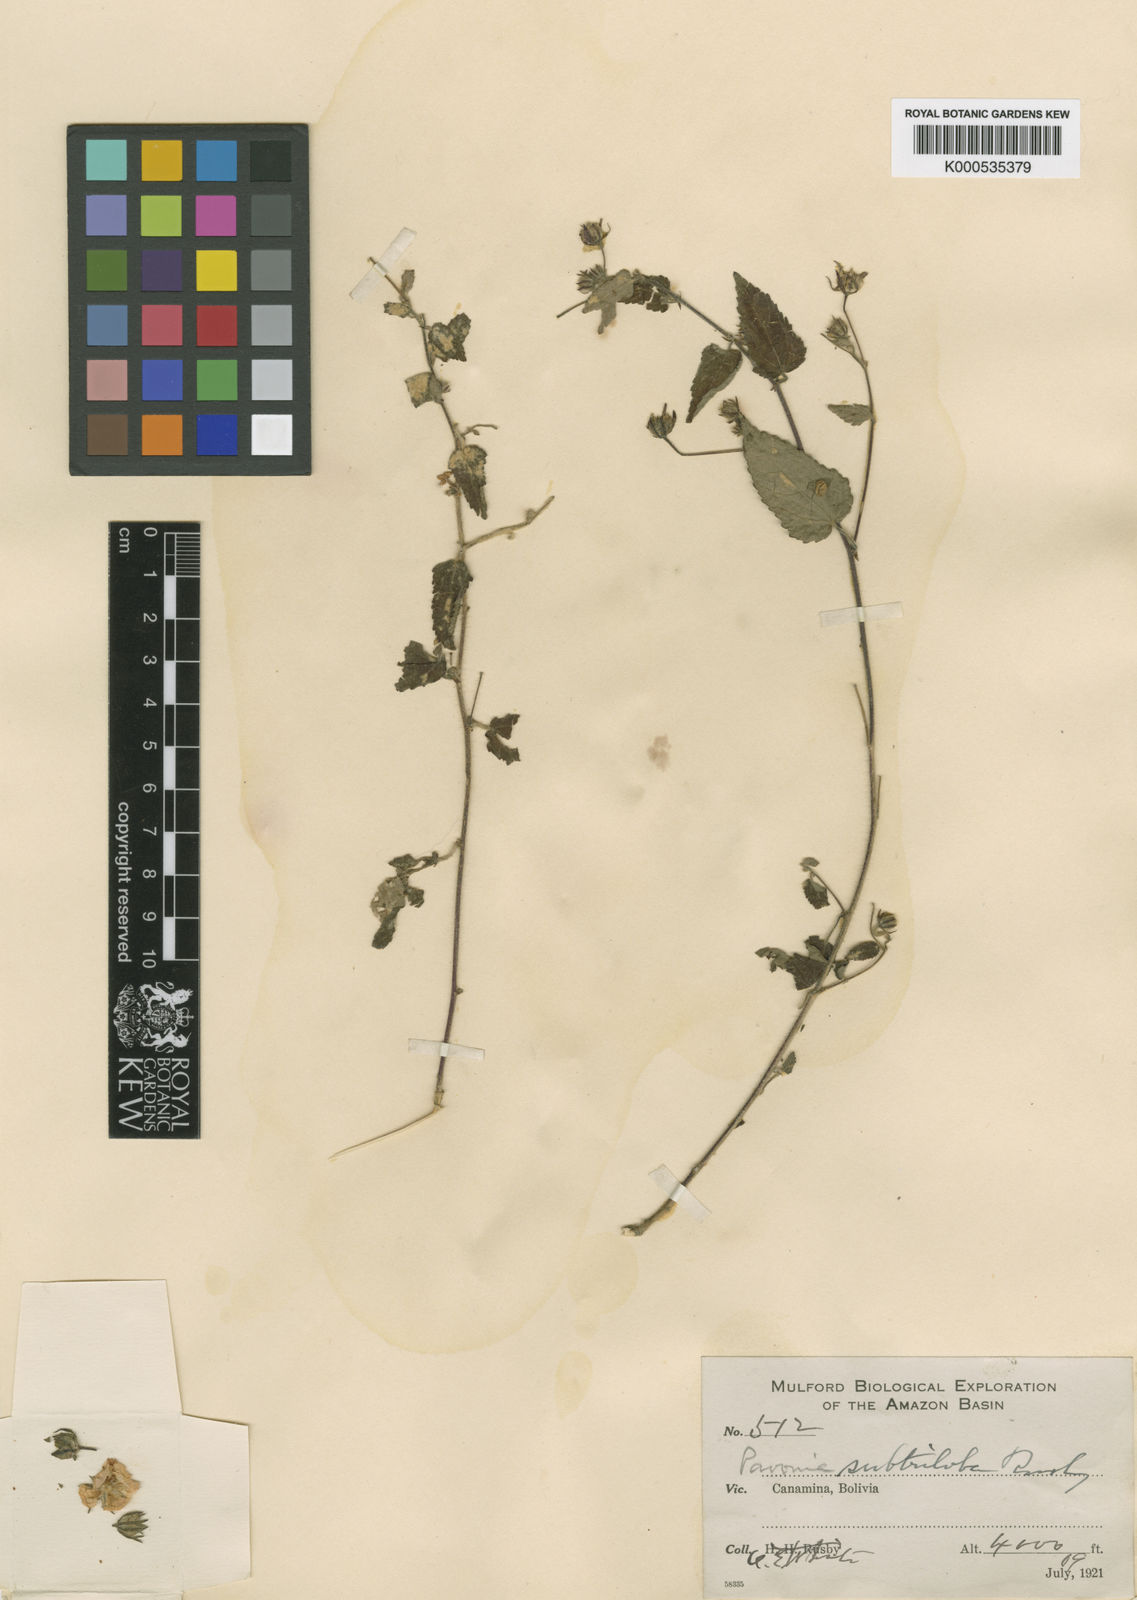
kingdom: Plantae
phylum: Tracheophyta
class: Magnoliopsida
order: Malvales
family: Malvaceae
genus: Pavonia
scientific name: Pavonia paniculata
